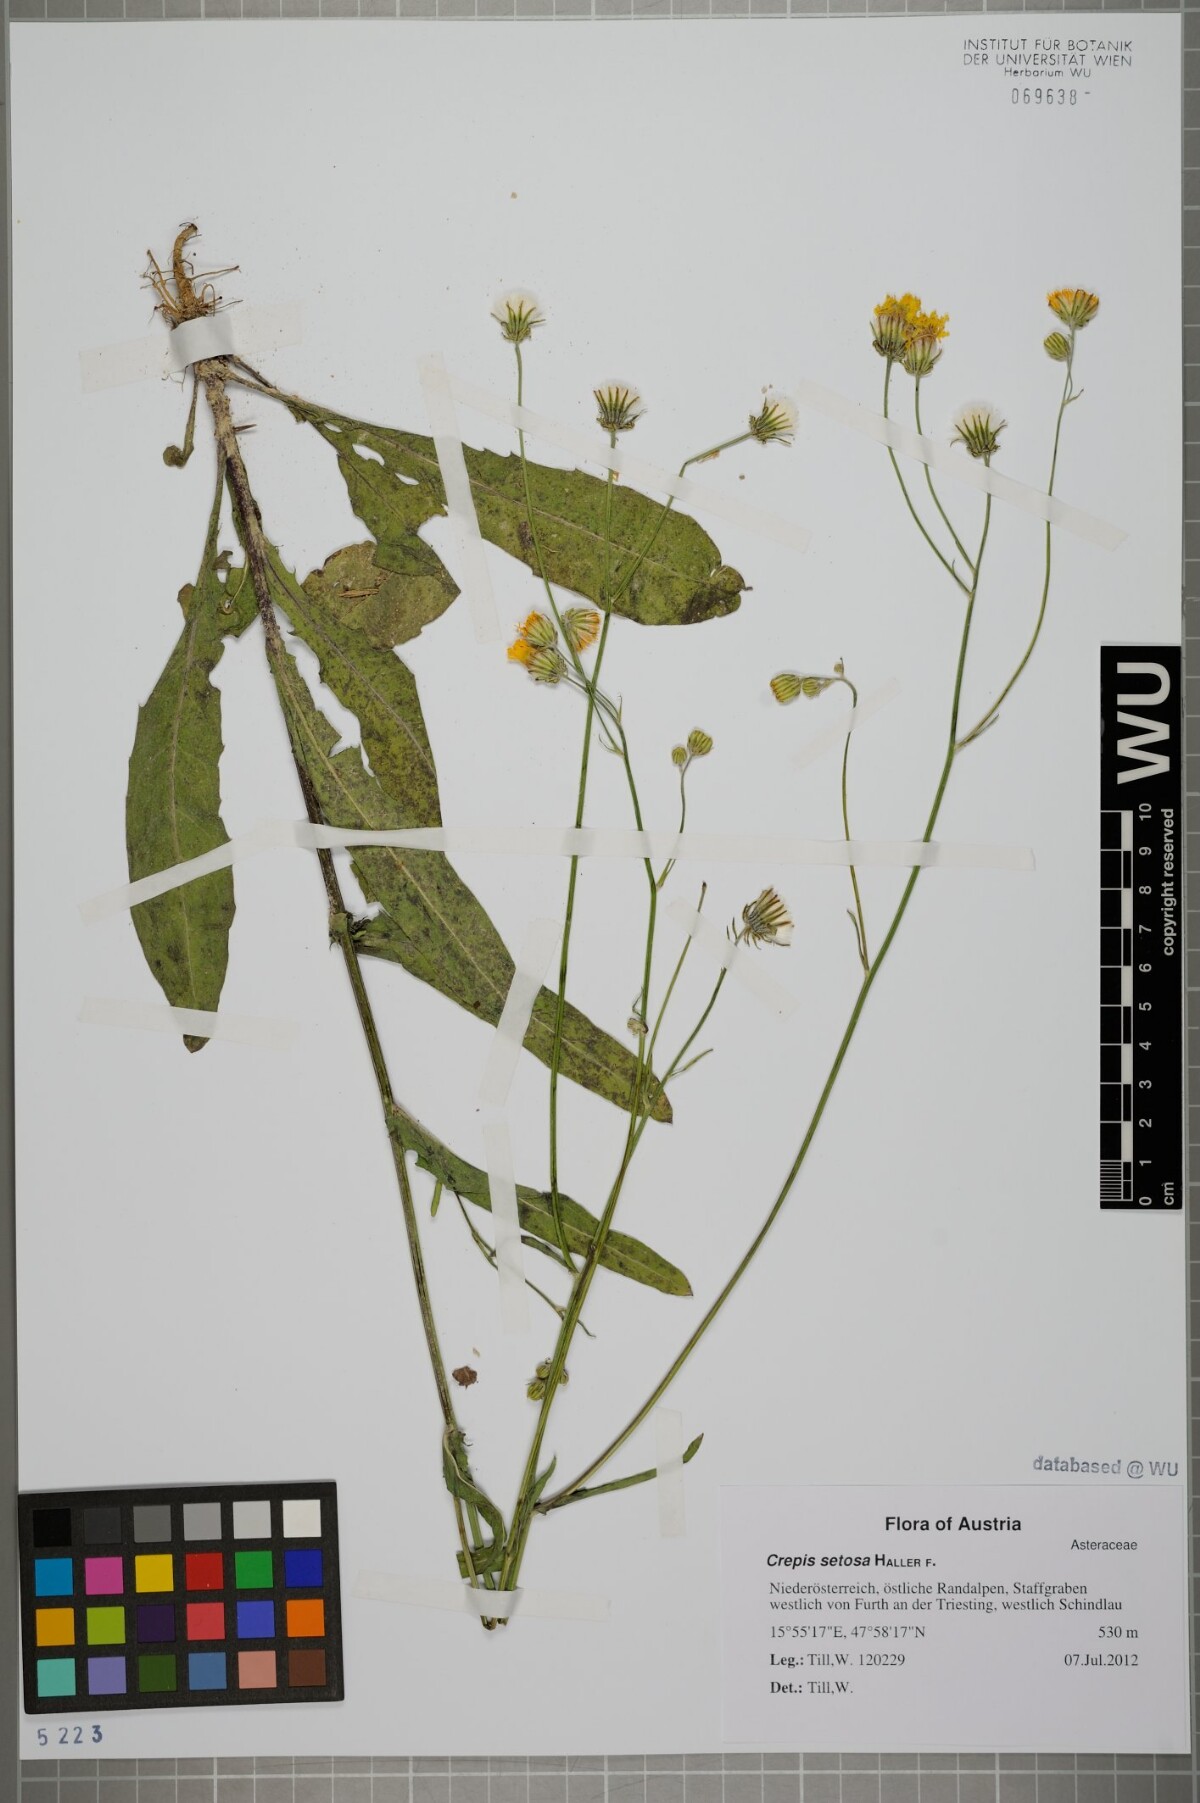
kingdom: Plantae
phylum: Tracheophyta
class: Magnoliopsida
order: Asterales
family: Asteraceae
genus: Crepis
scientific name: Crepis setosa
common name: Bristly hawk's-beard
